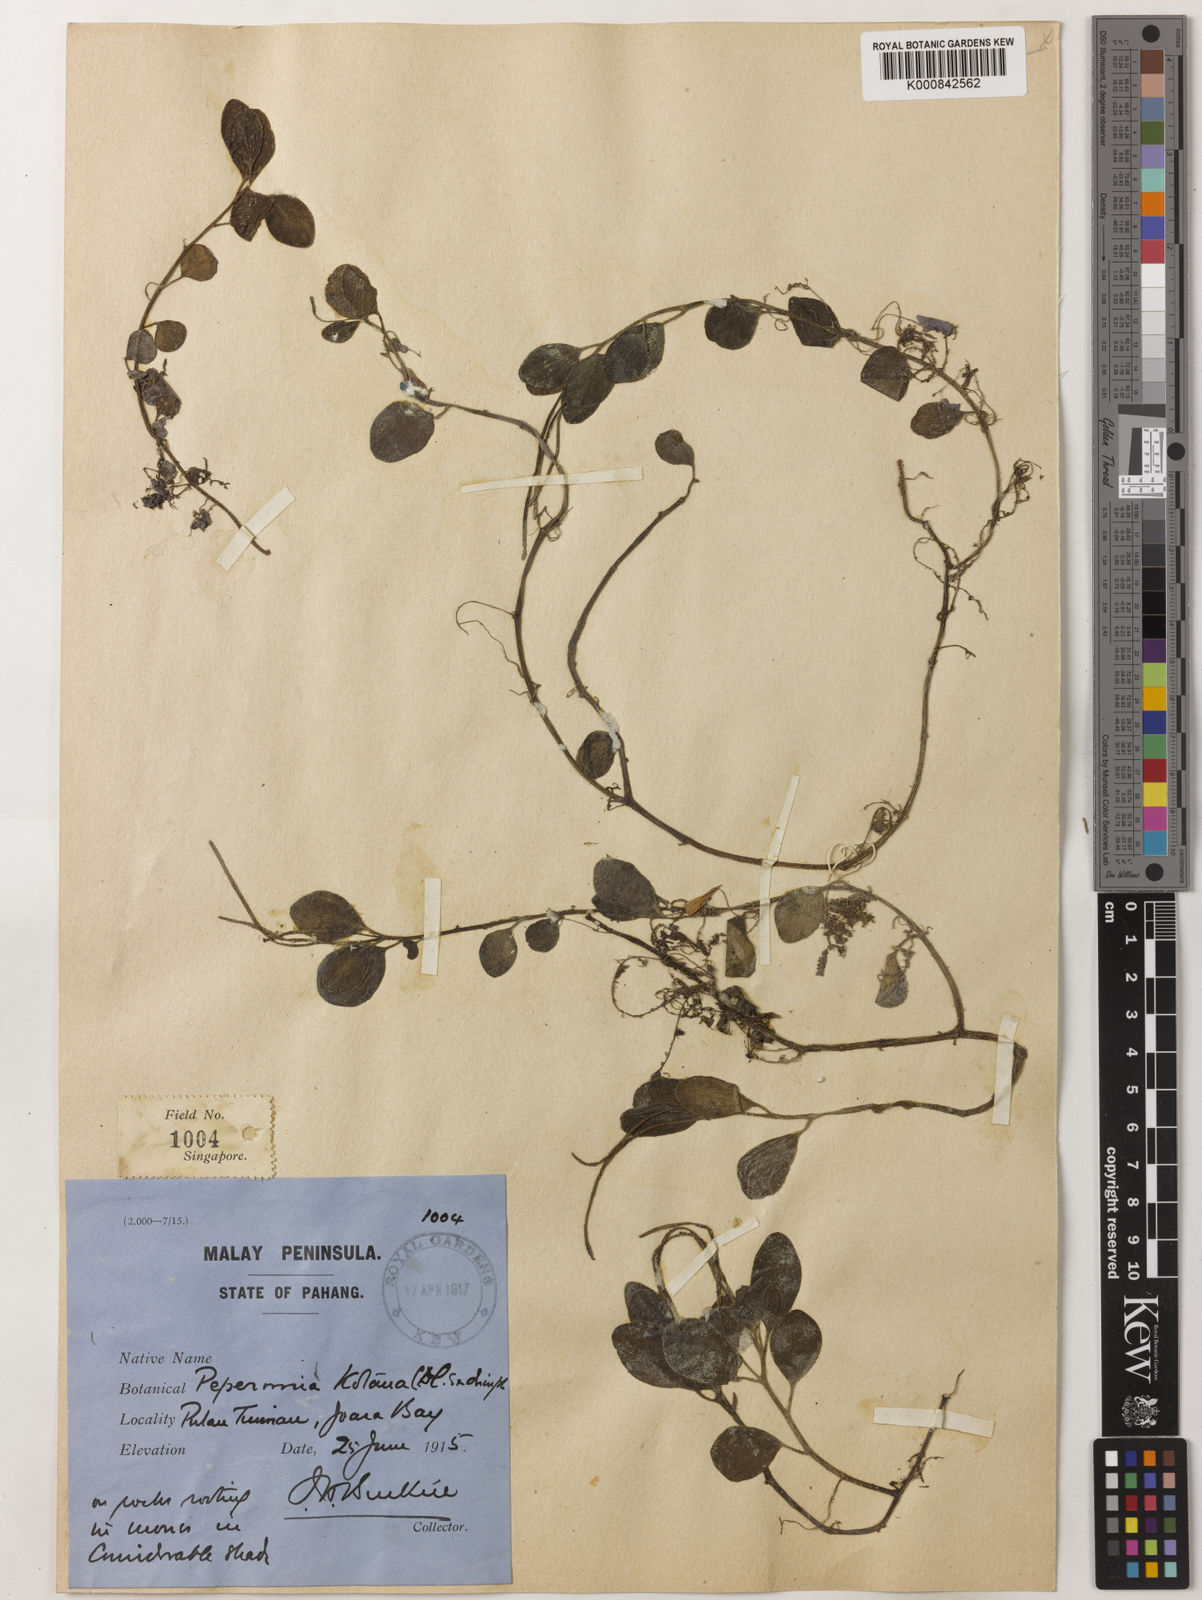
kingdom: Plantae
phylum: Tracheophyta
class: Magnoliopsida
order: Piperales
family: Piperaceae
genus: Peperomia
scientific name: Peperomia kotana
